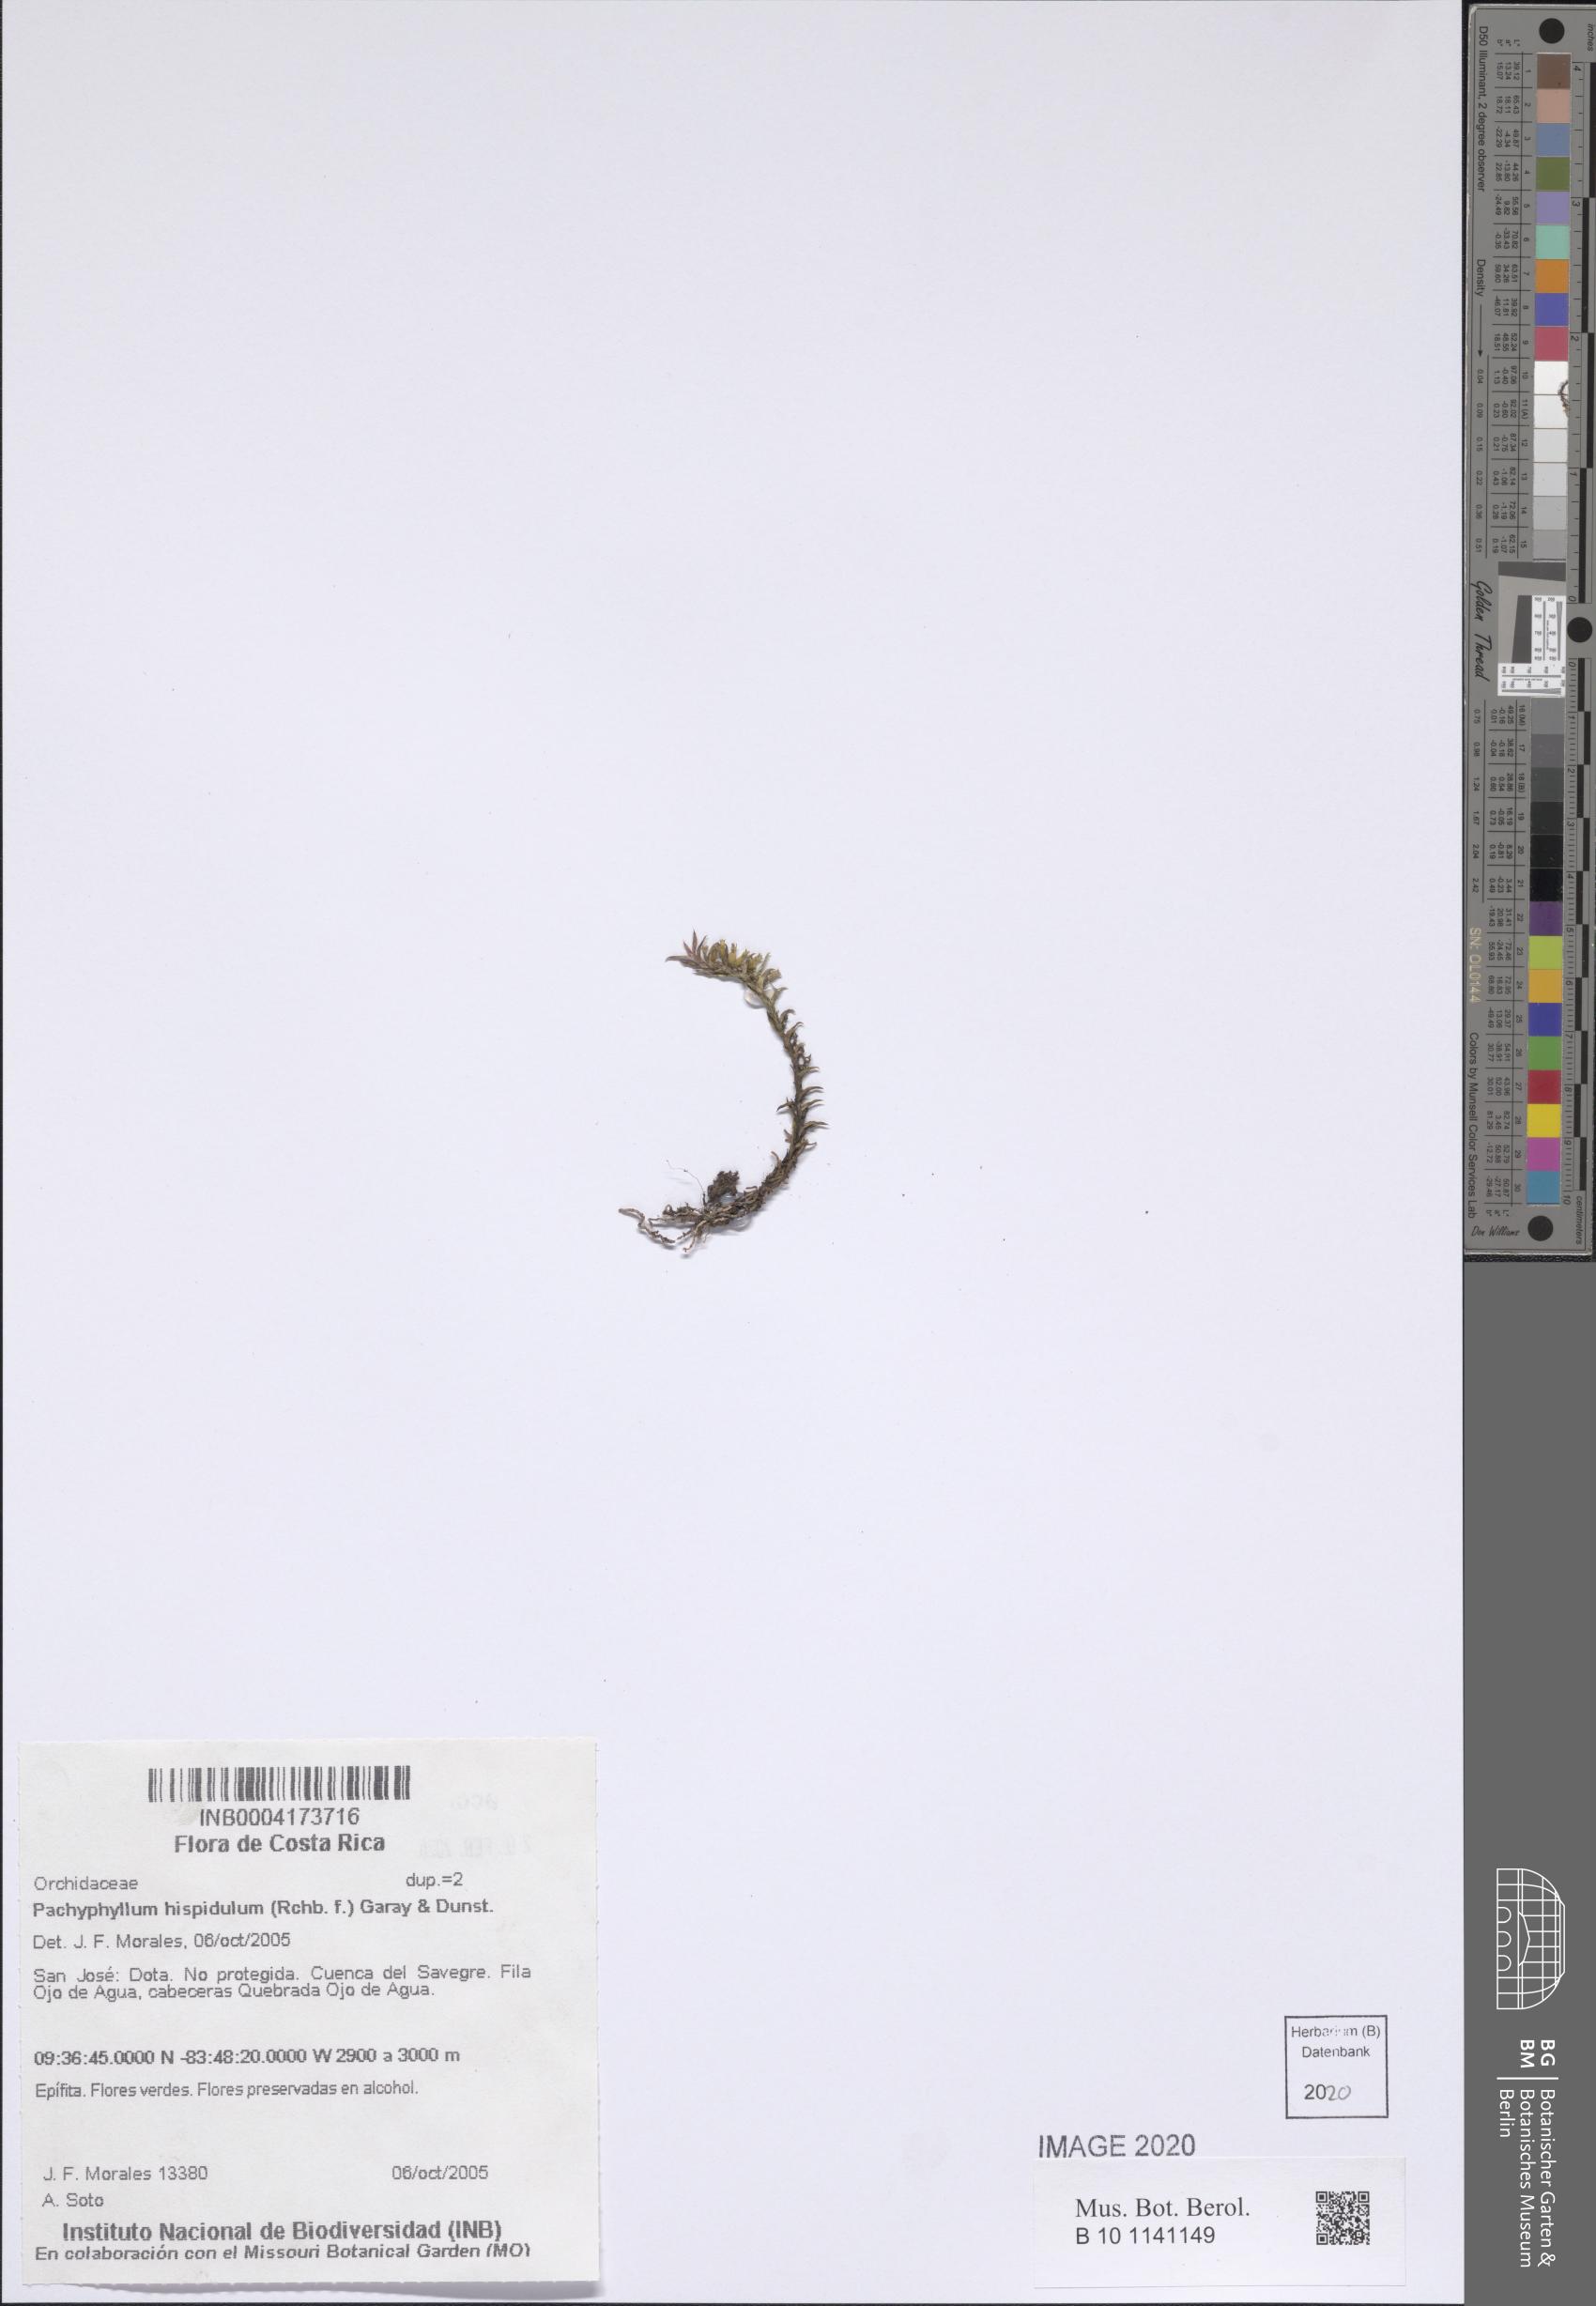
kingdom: Plantae
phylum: Tracheophyta
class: Liliopsida
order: Asparagales
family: Orchidaceae
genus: Fernandezia
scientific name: Fernandezia hispidula
